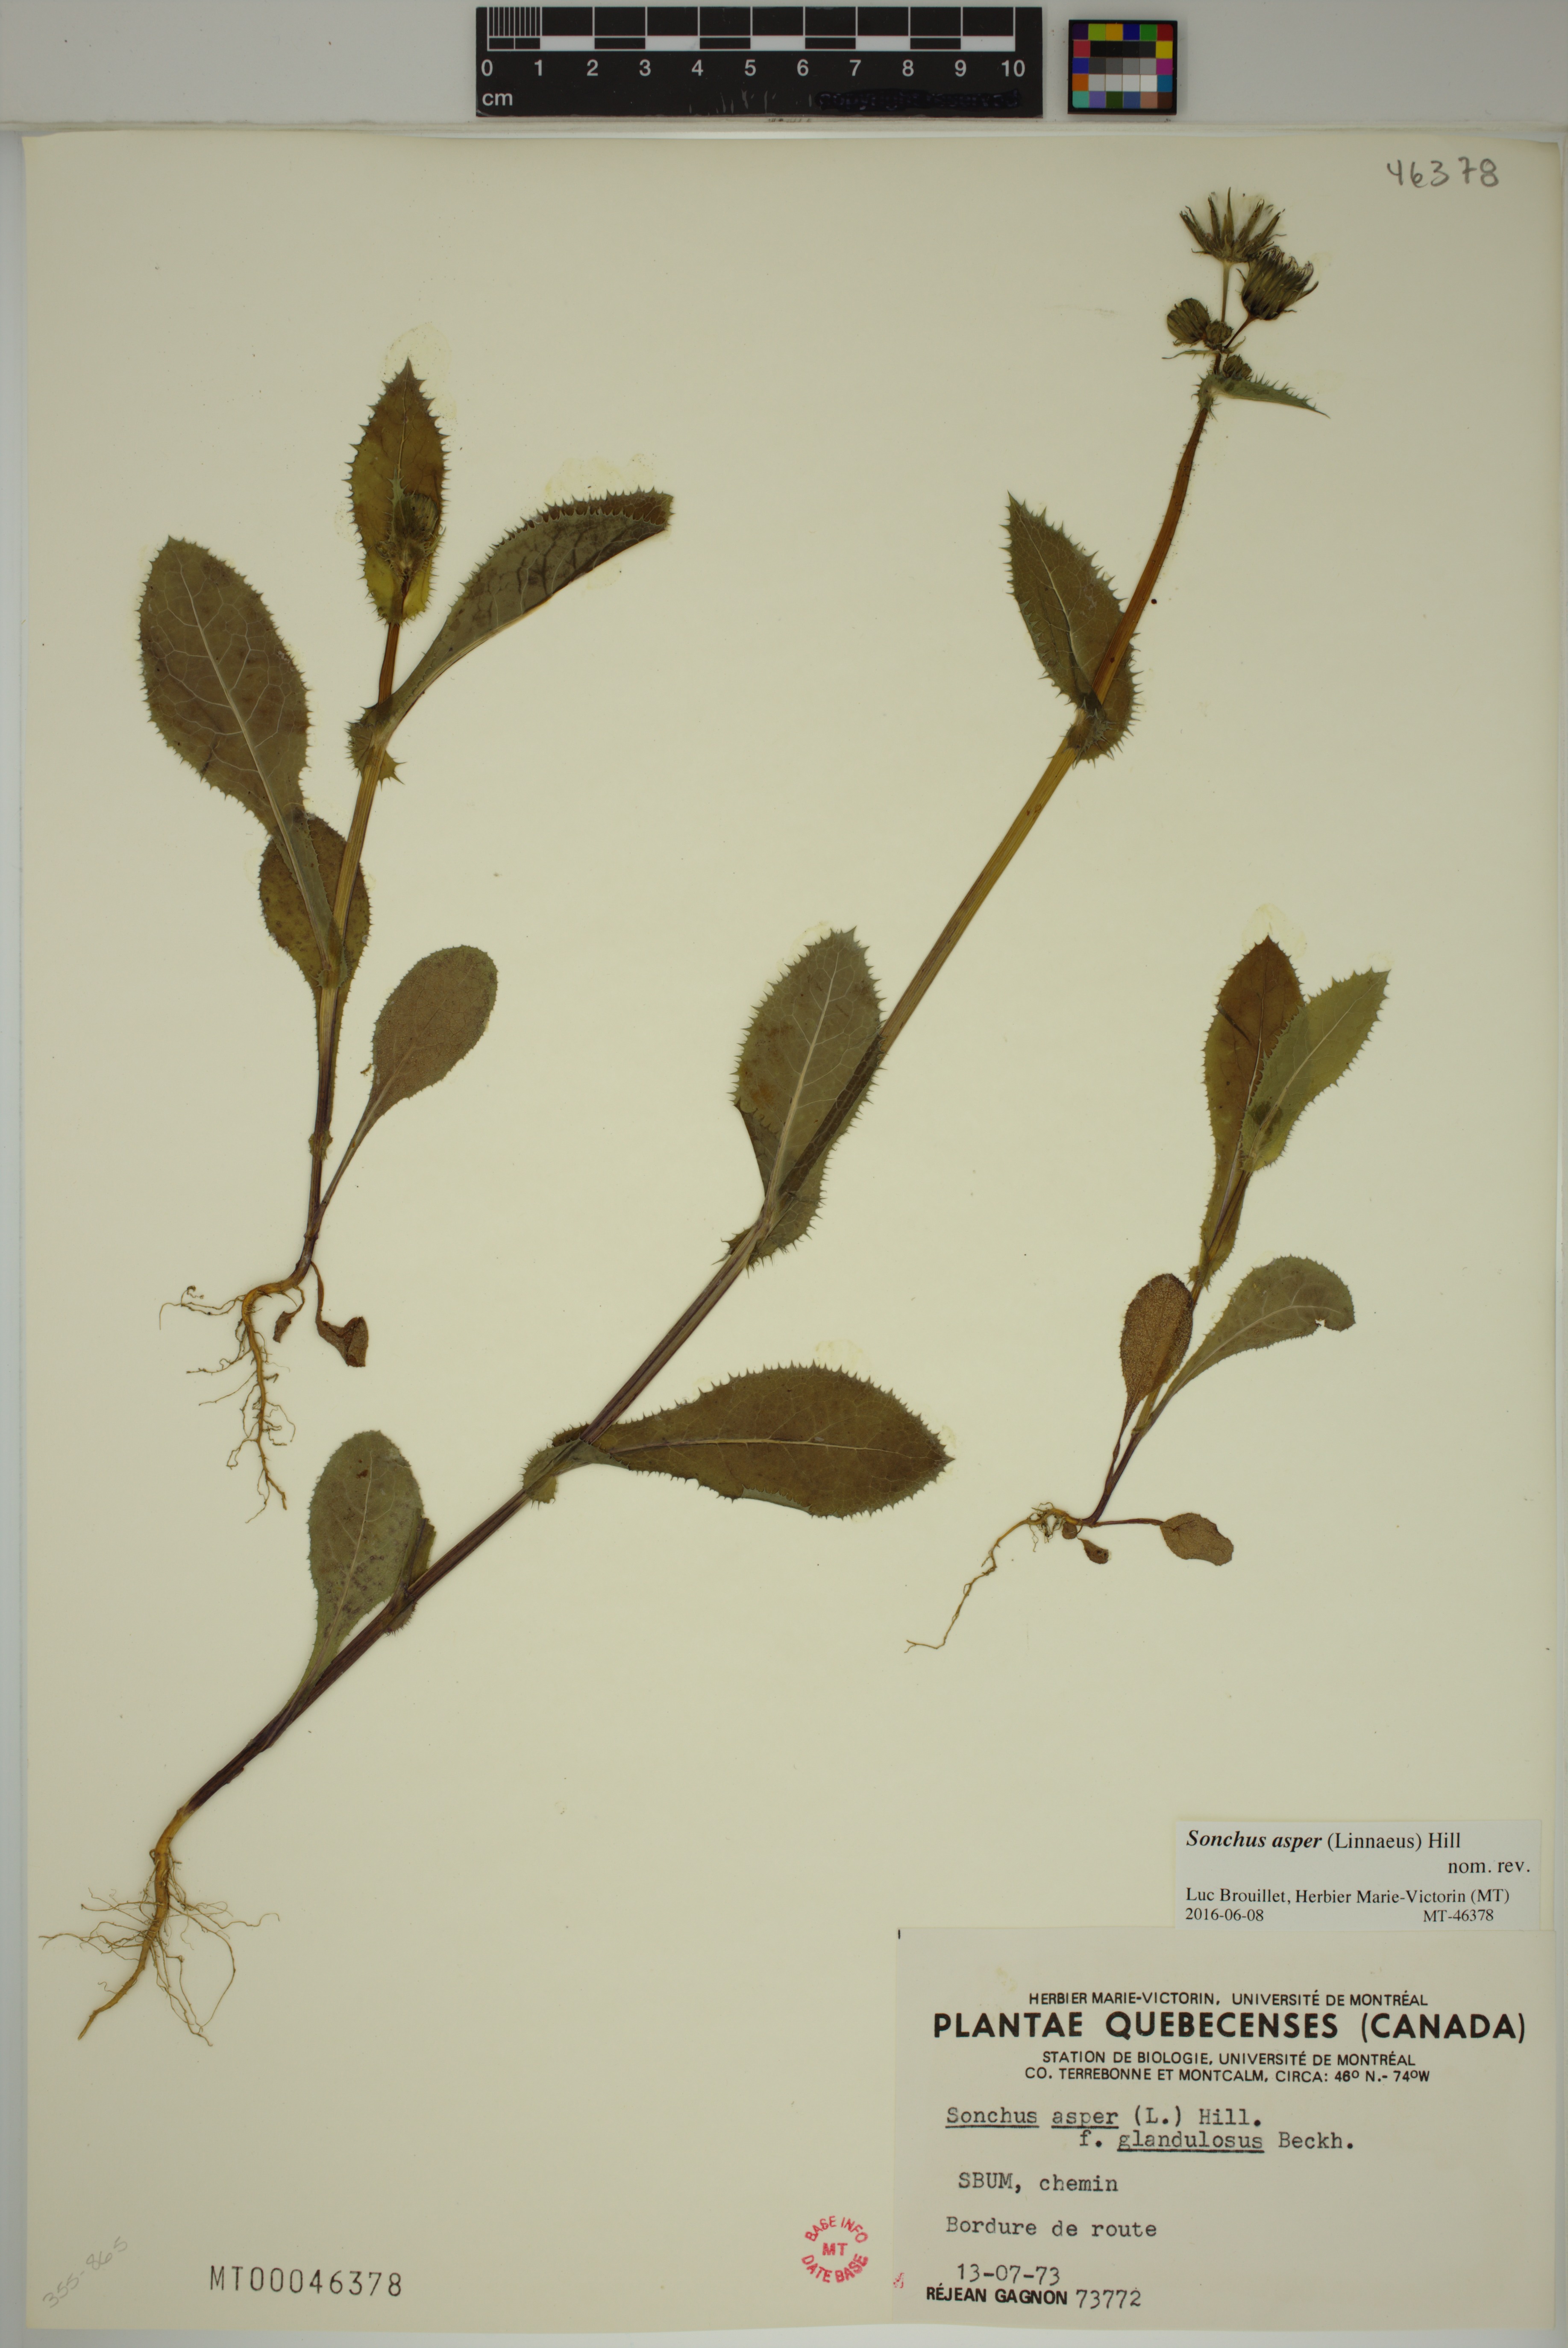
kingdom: Plantae
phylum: Tracheophyta
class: Magnoliopsida
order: Asterales
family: Asteraceae
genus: Sonchus
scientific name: Sonchus asper
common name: Prickly sow-thistle
